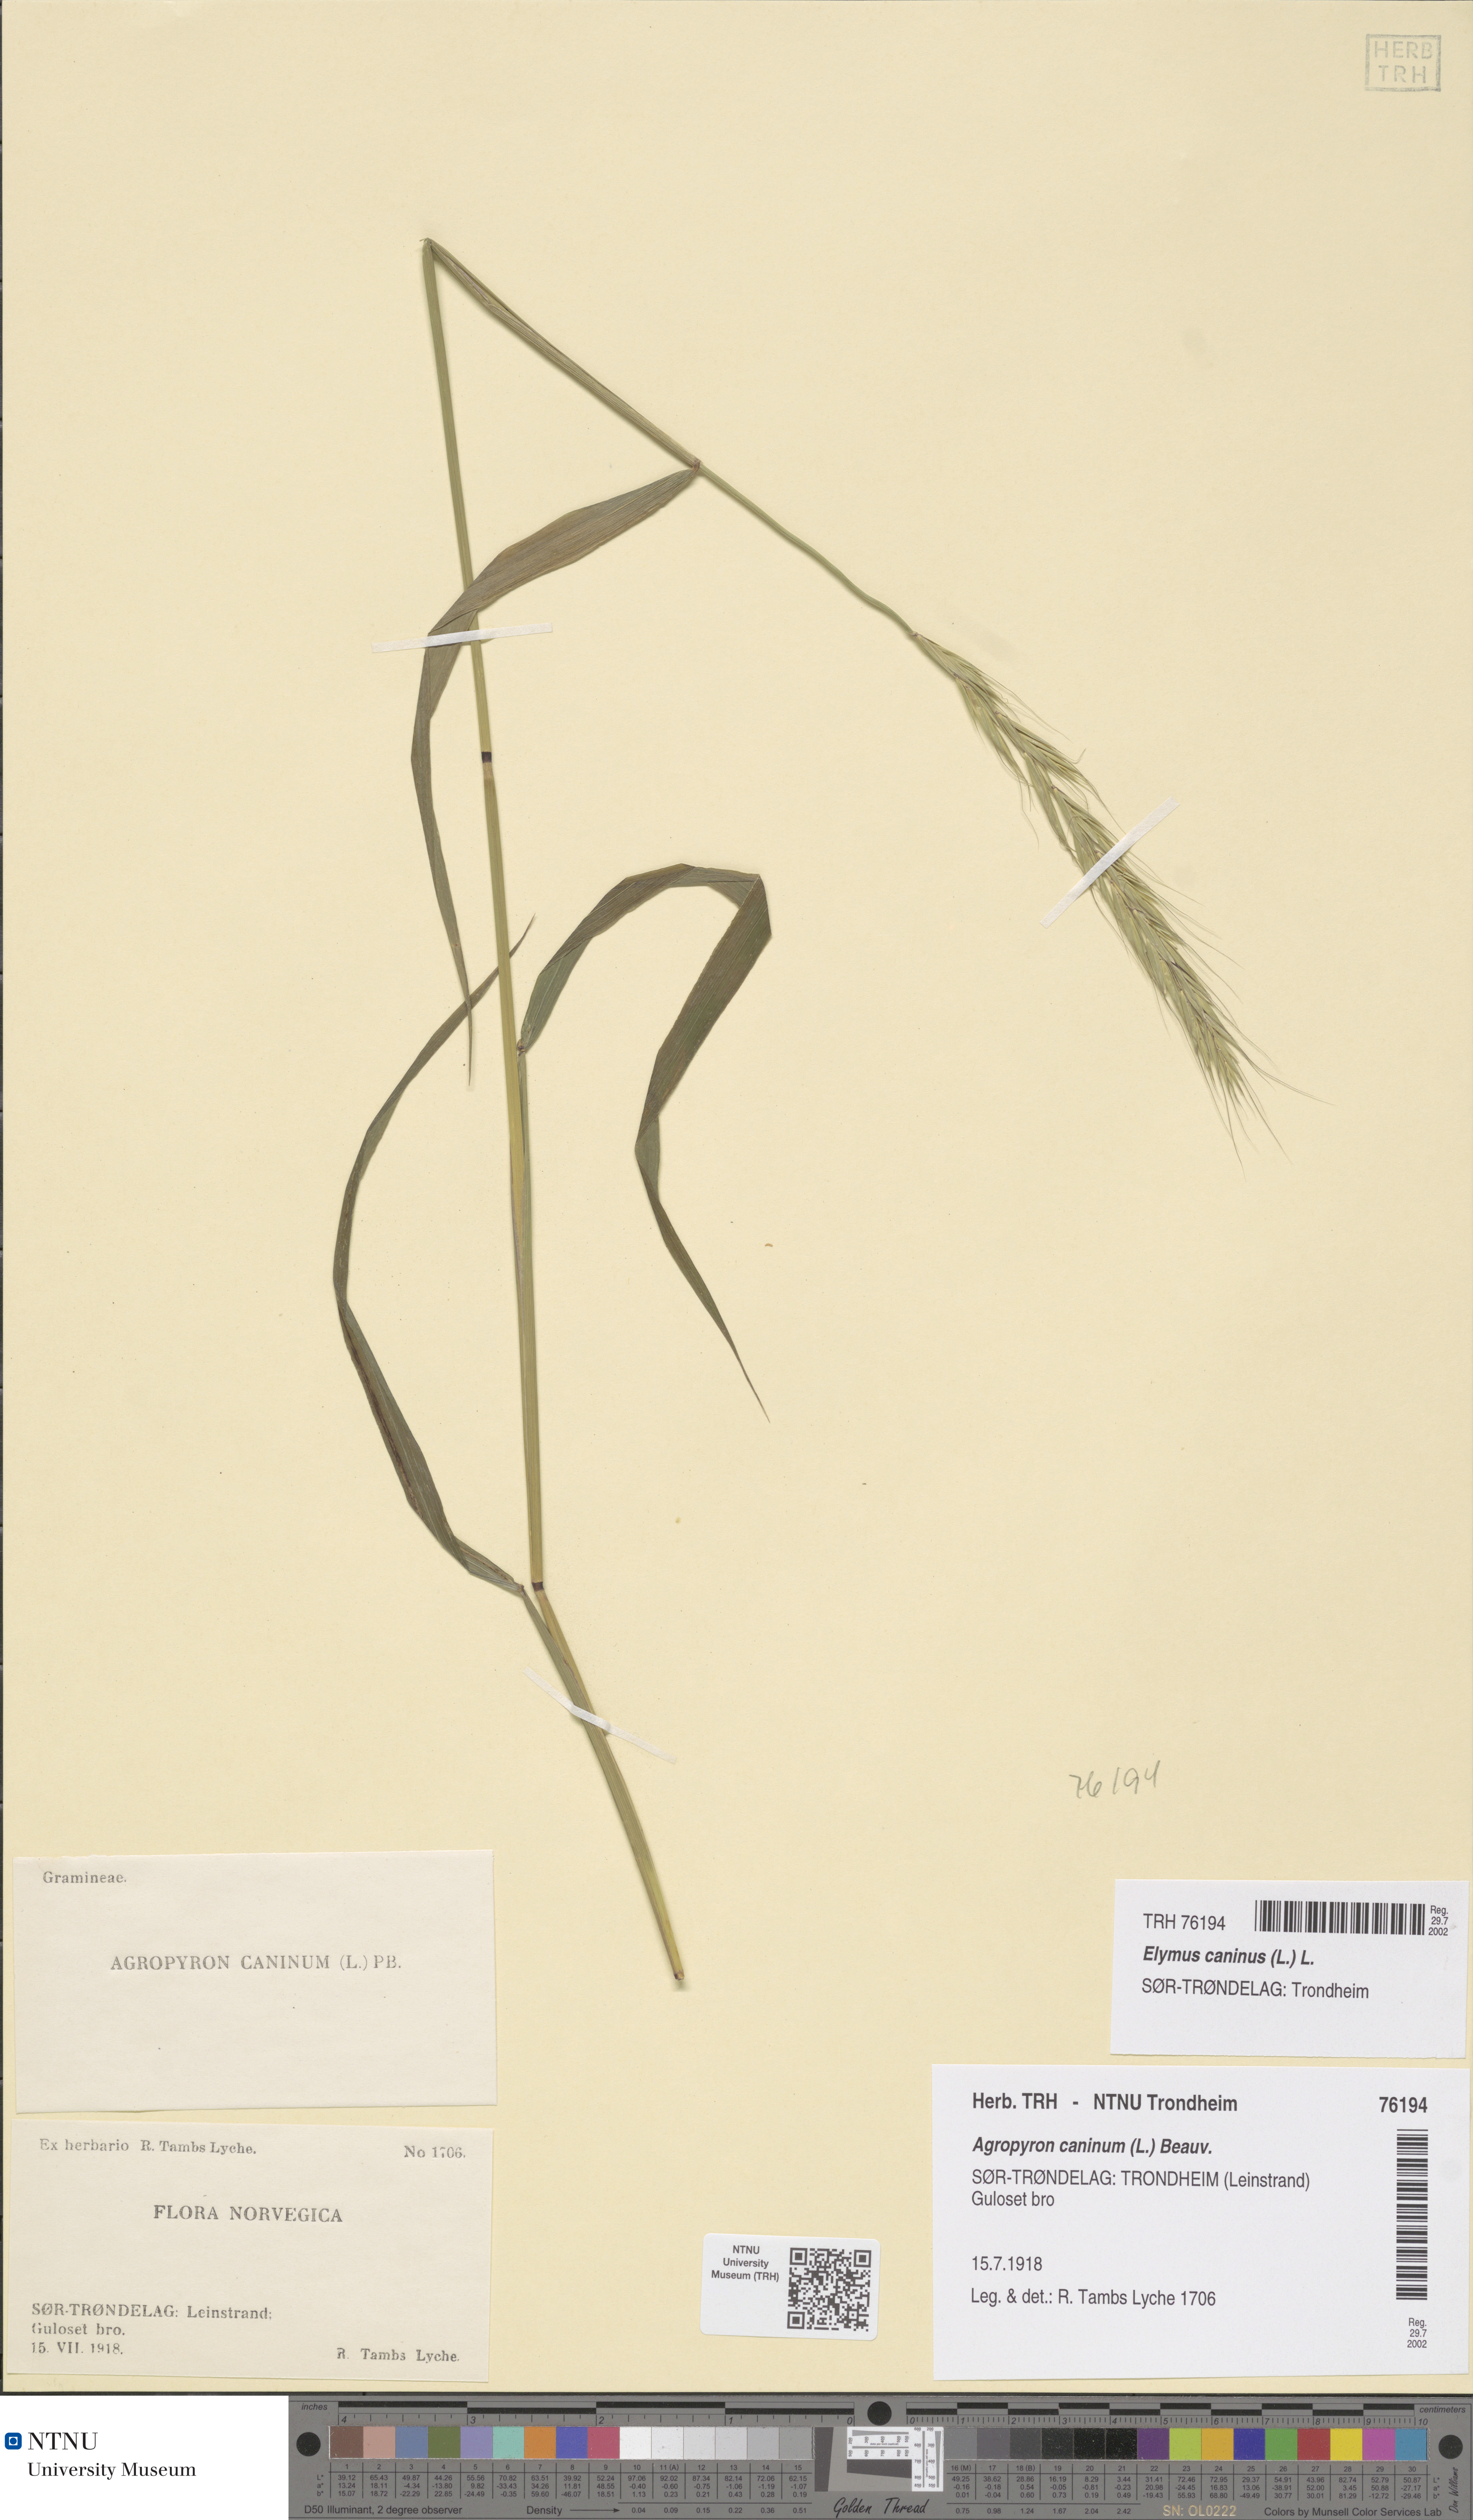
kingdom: Plantae
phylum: Tracheophyta
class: Liliopsida
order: Poales
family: Poaceae
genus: Elymus
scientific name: Elymus caninus
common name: Bearded couch
